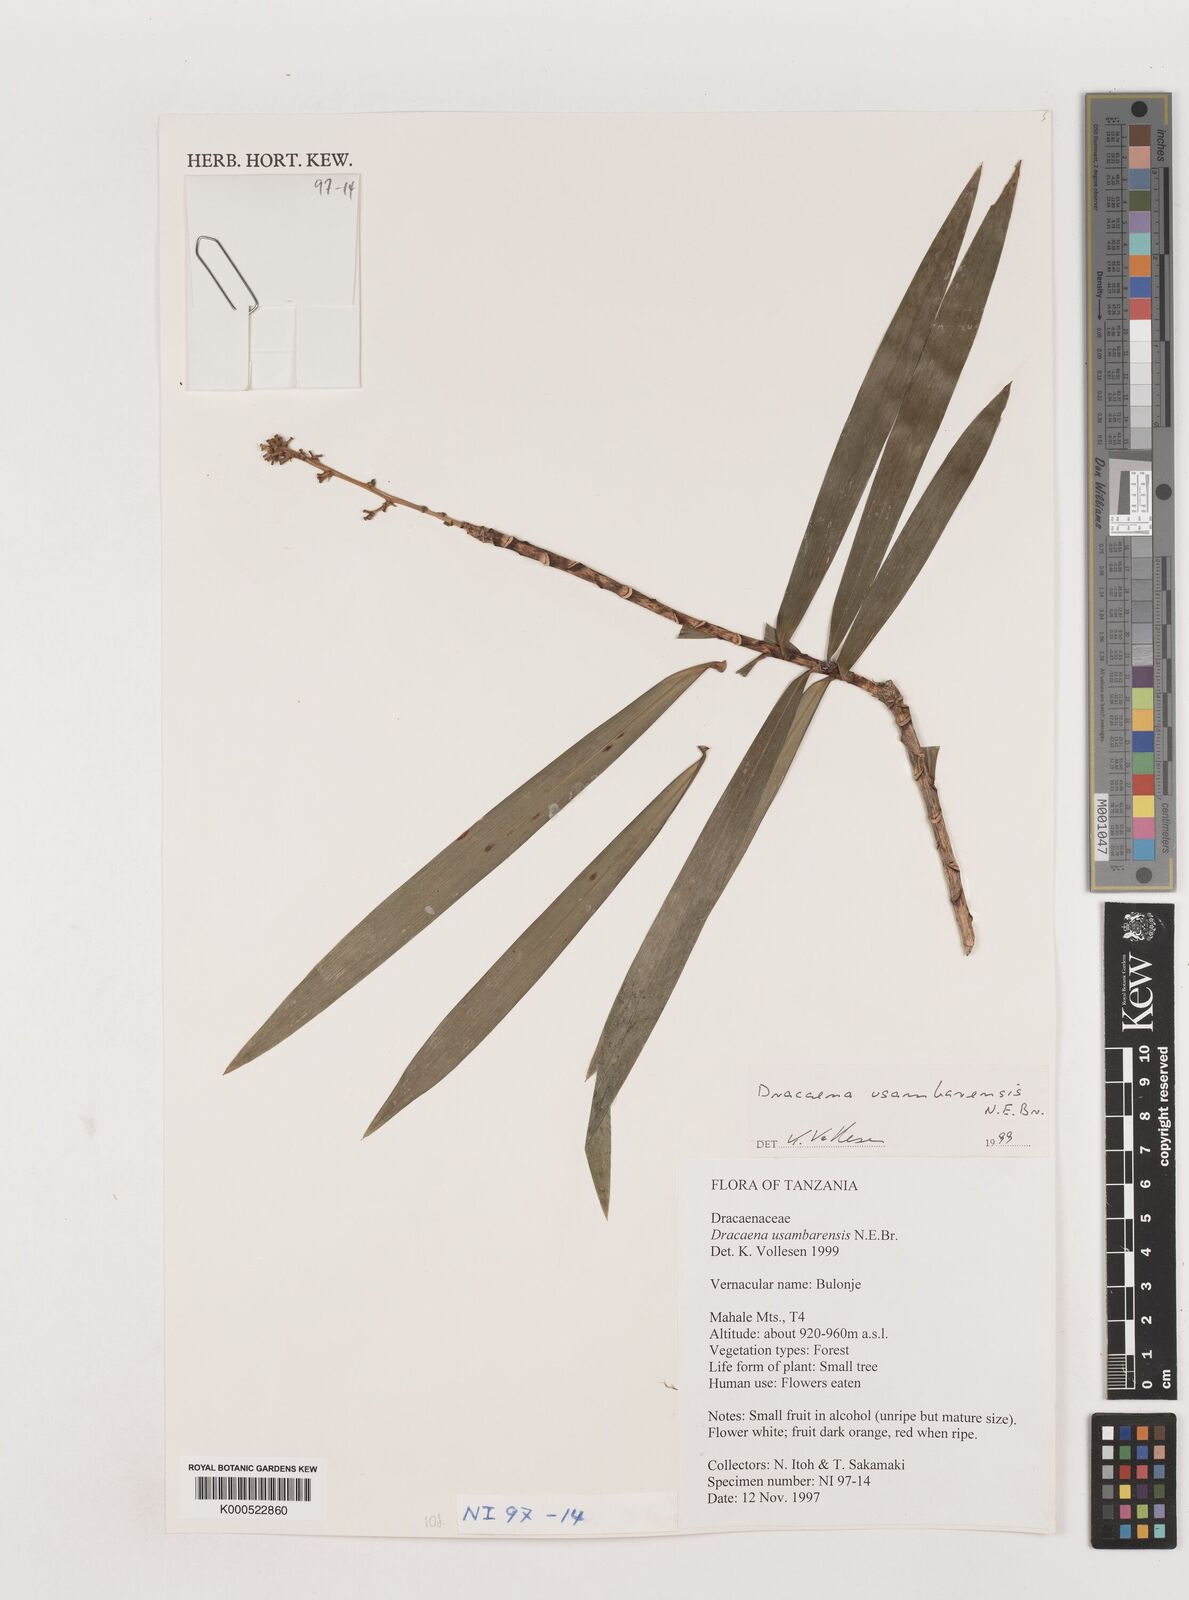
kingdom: Plantae
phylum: Tracheophyta
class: Liliopsida
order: Asparagales
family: Asparagaceae
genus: Dracaena
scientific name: Dracaena usambarensis
